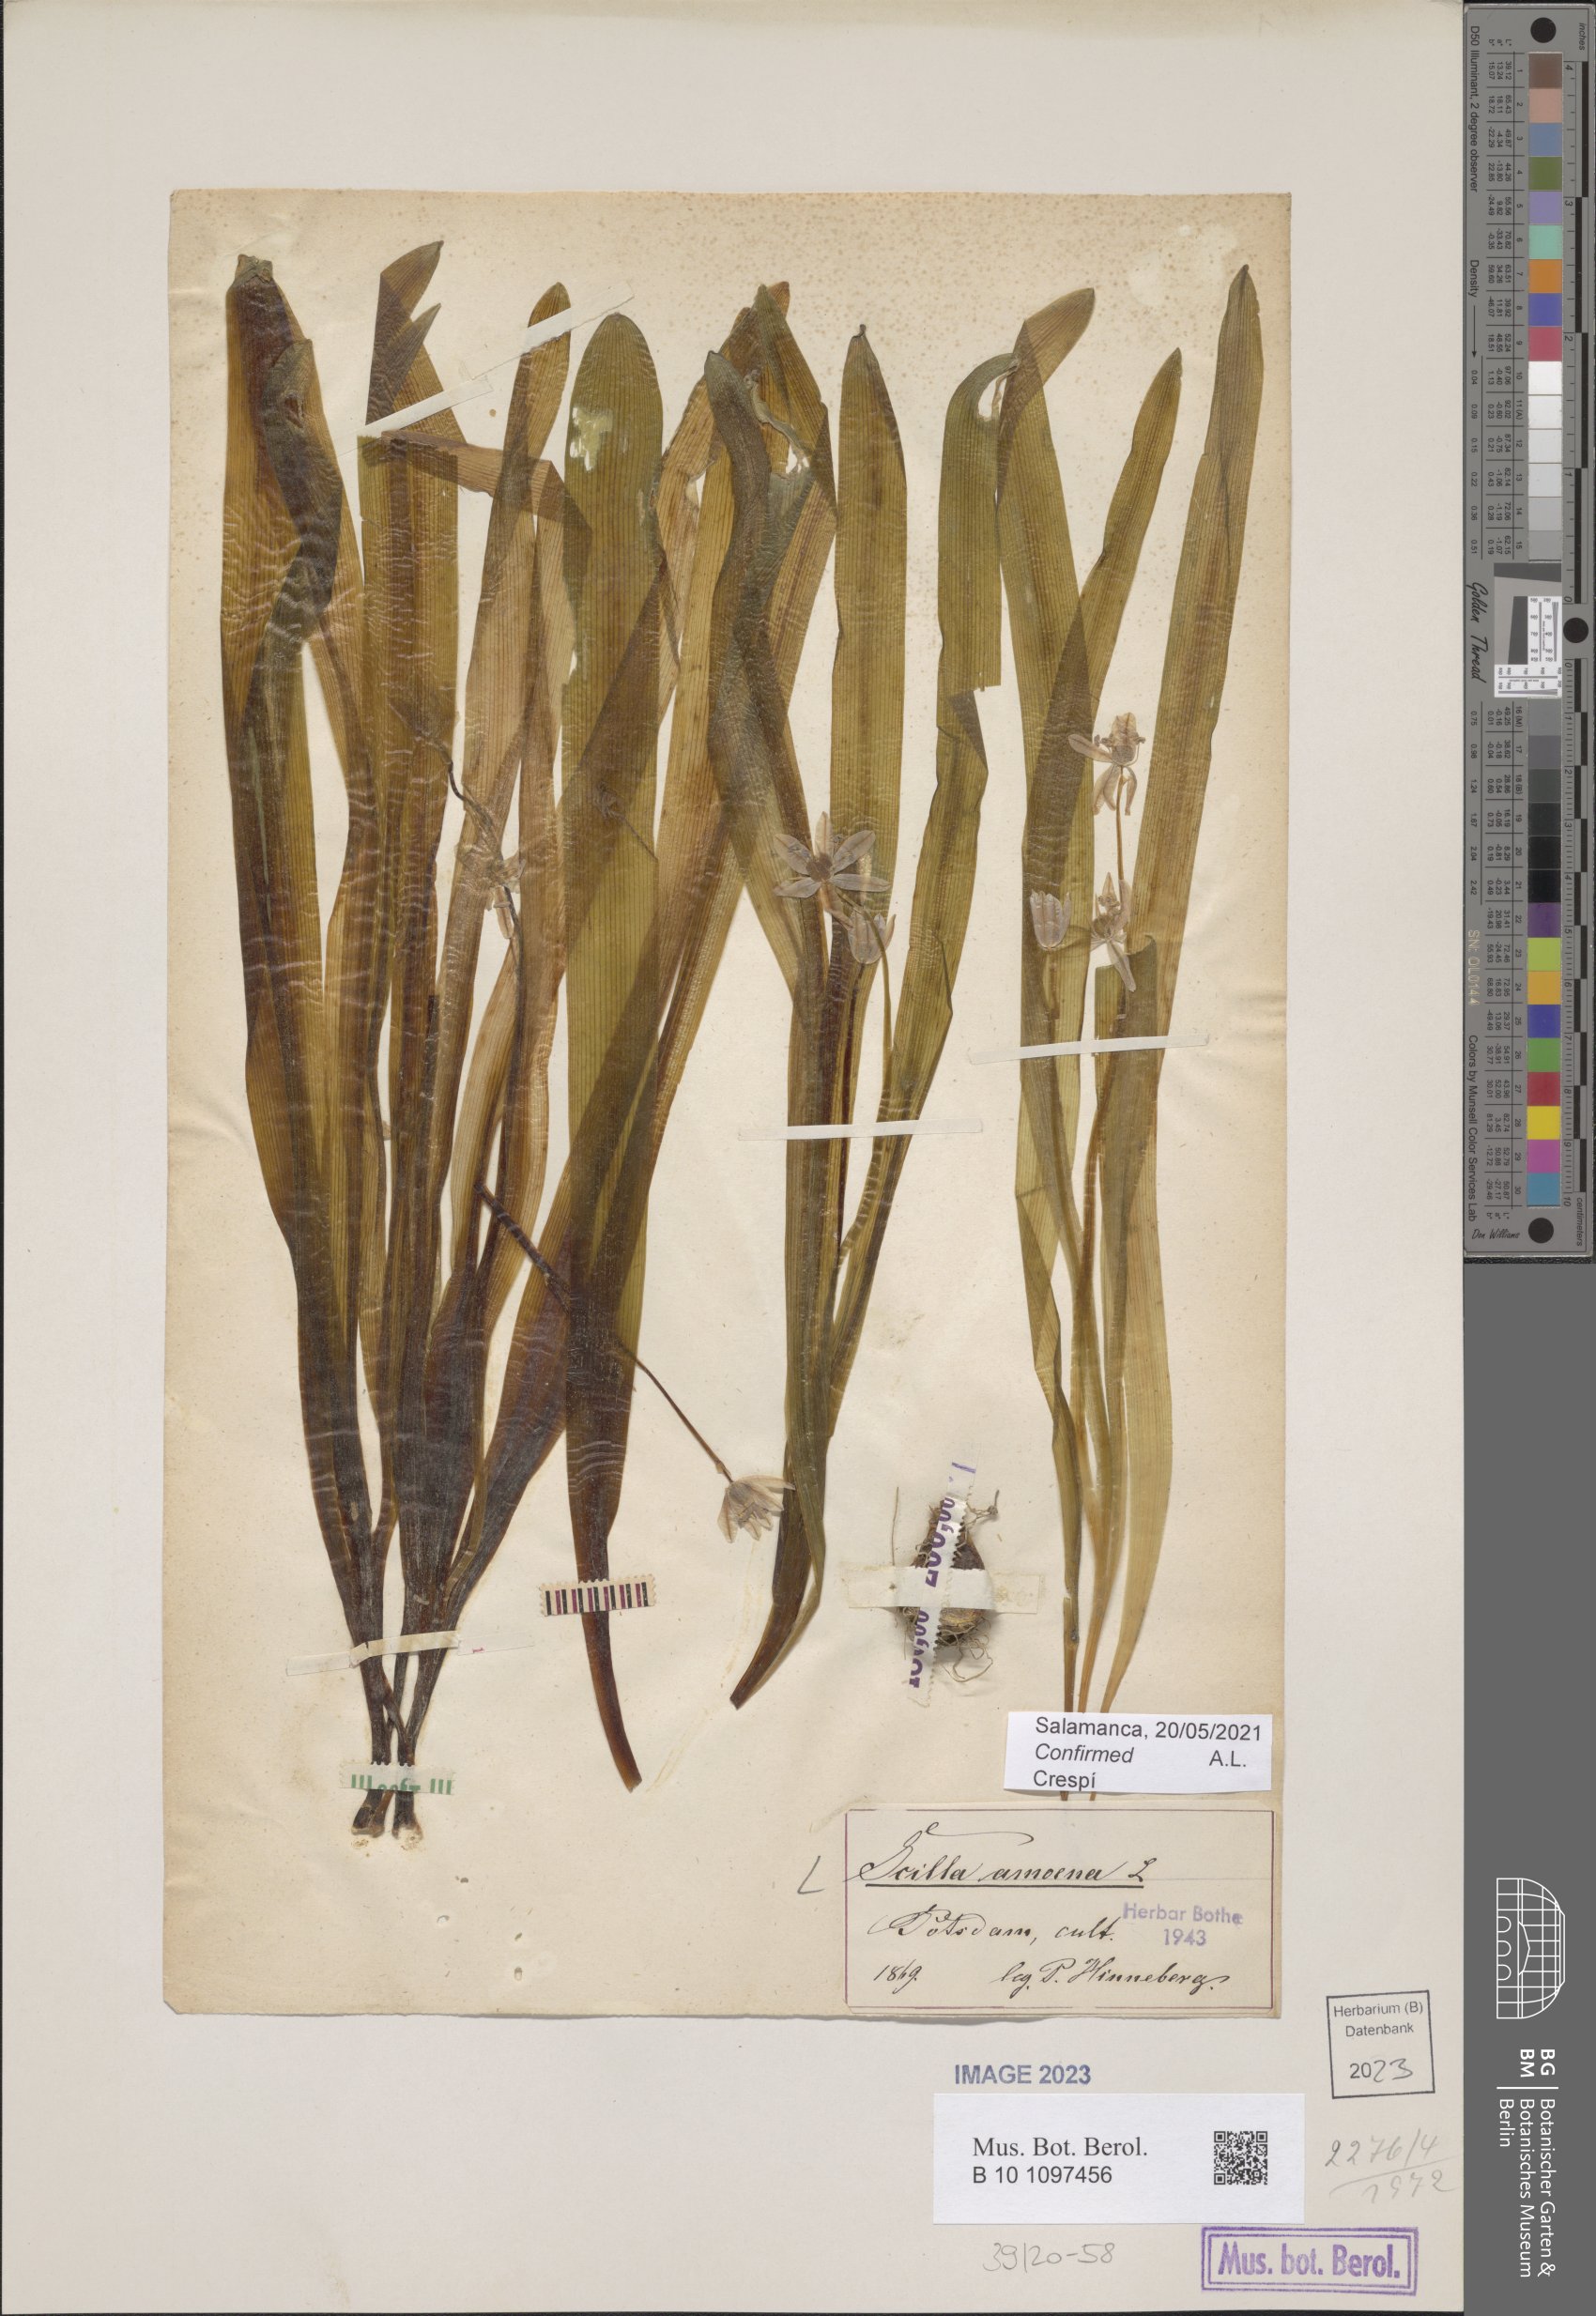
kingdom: Plantae
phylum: Tracheophyta
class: Liliopsida
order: Asparagales
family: Asparagaceae
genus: Scilla
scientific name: Scilla amoena
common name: Star-hyacinth
